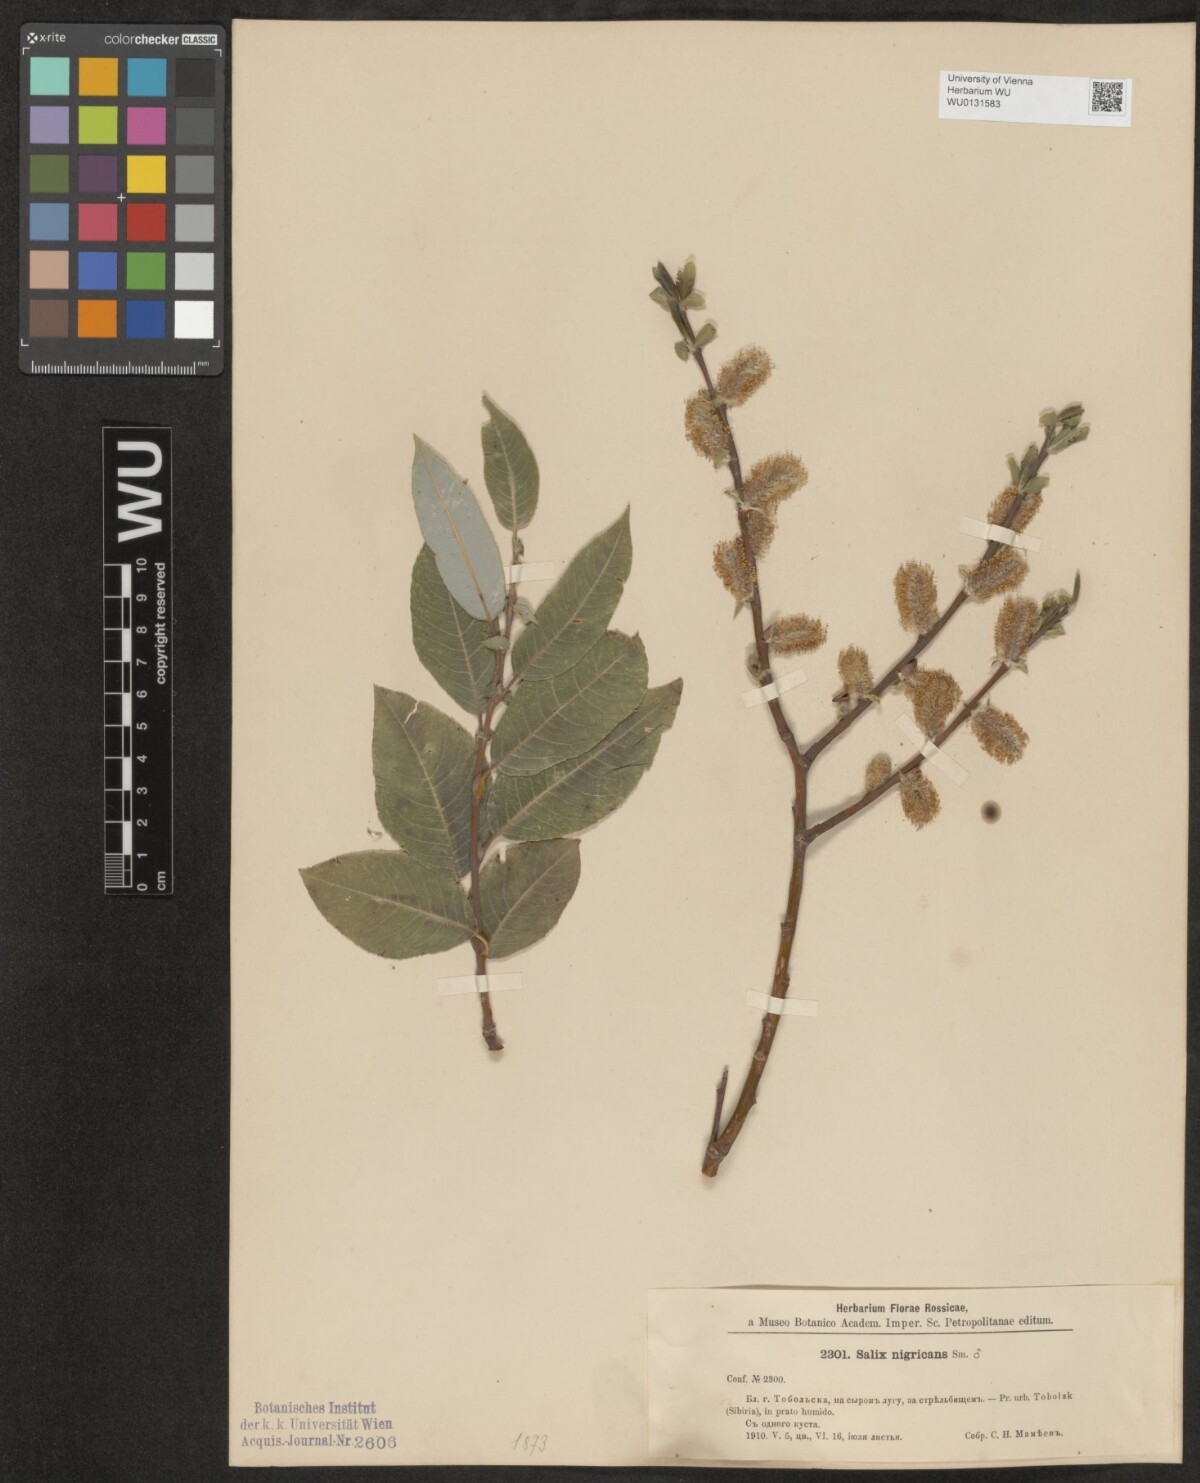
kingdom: Plantae
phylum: Tracheophyta
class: Magnoliopsida
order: Malpighiales
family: Salicaceae
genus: Salix
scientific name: Salix myrsinifolia
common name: Dark-leaved willow
